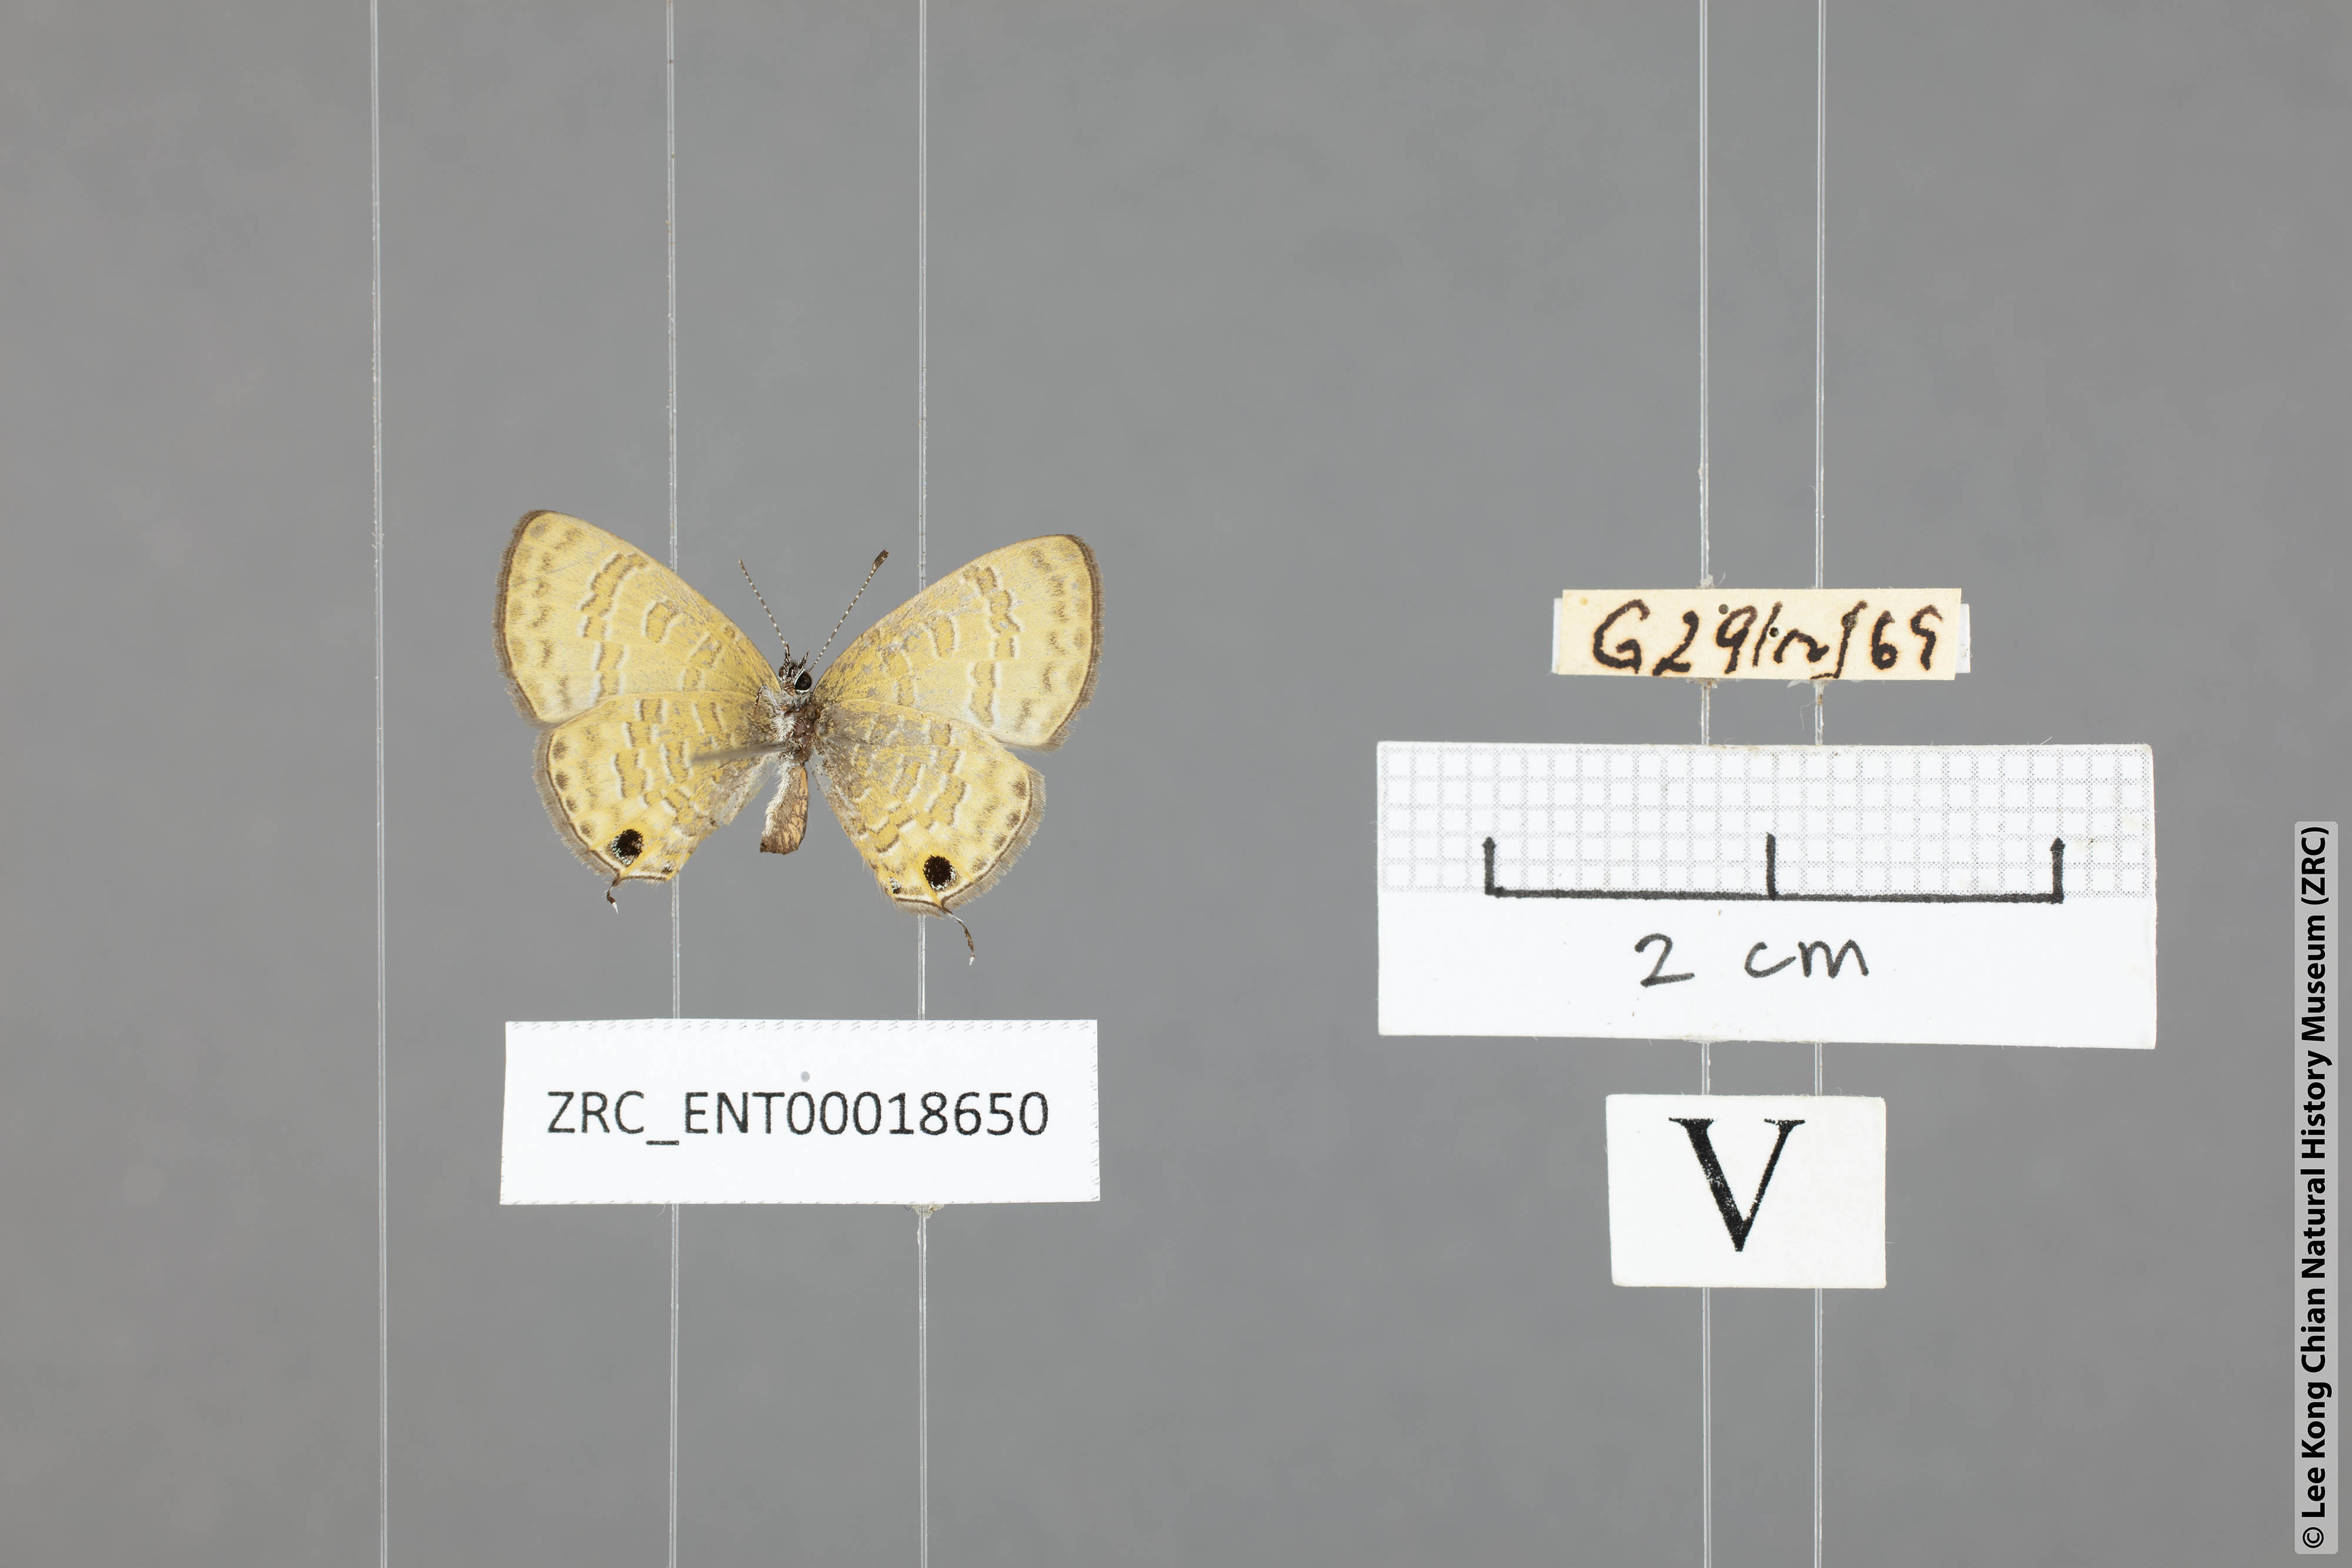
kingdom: Animalia
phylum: Arthropoda
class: Insecta
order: Lepidoptera
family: Lycaenidae
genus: Prosotas
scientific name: Prosotas pia
